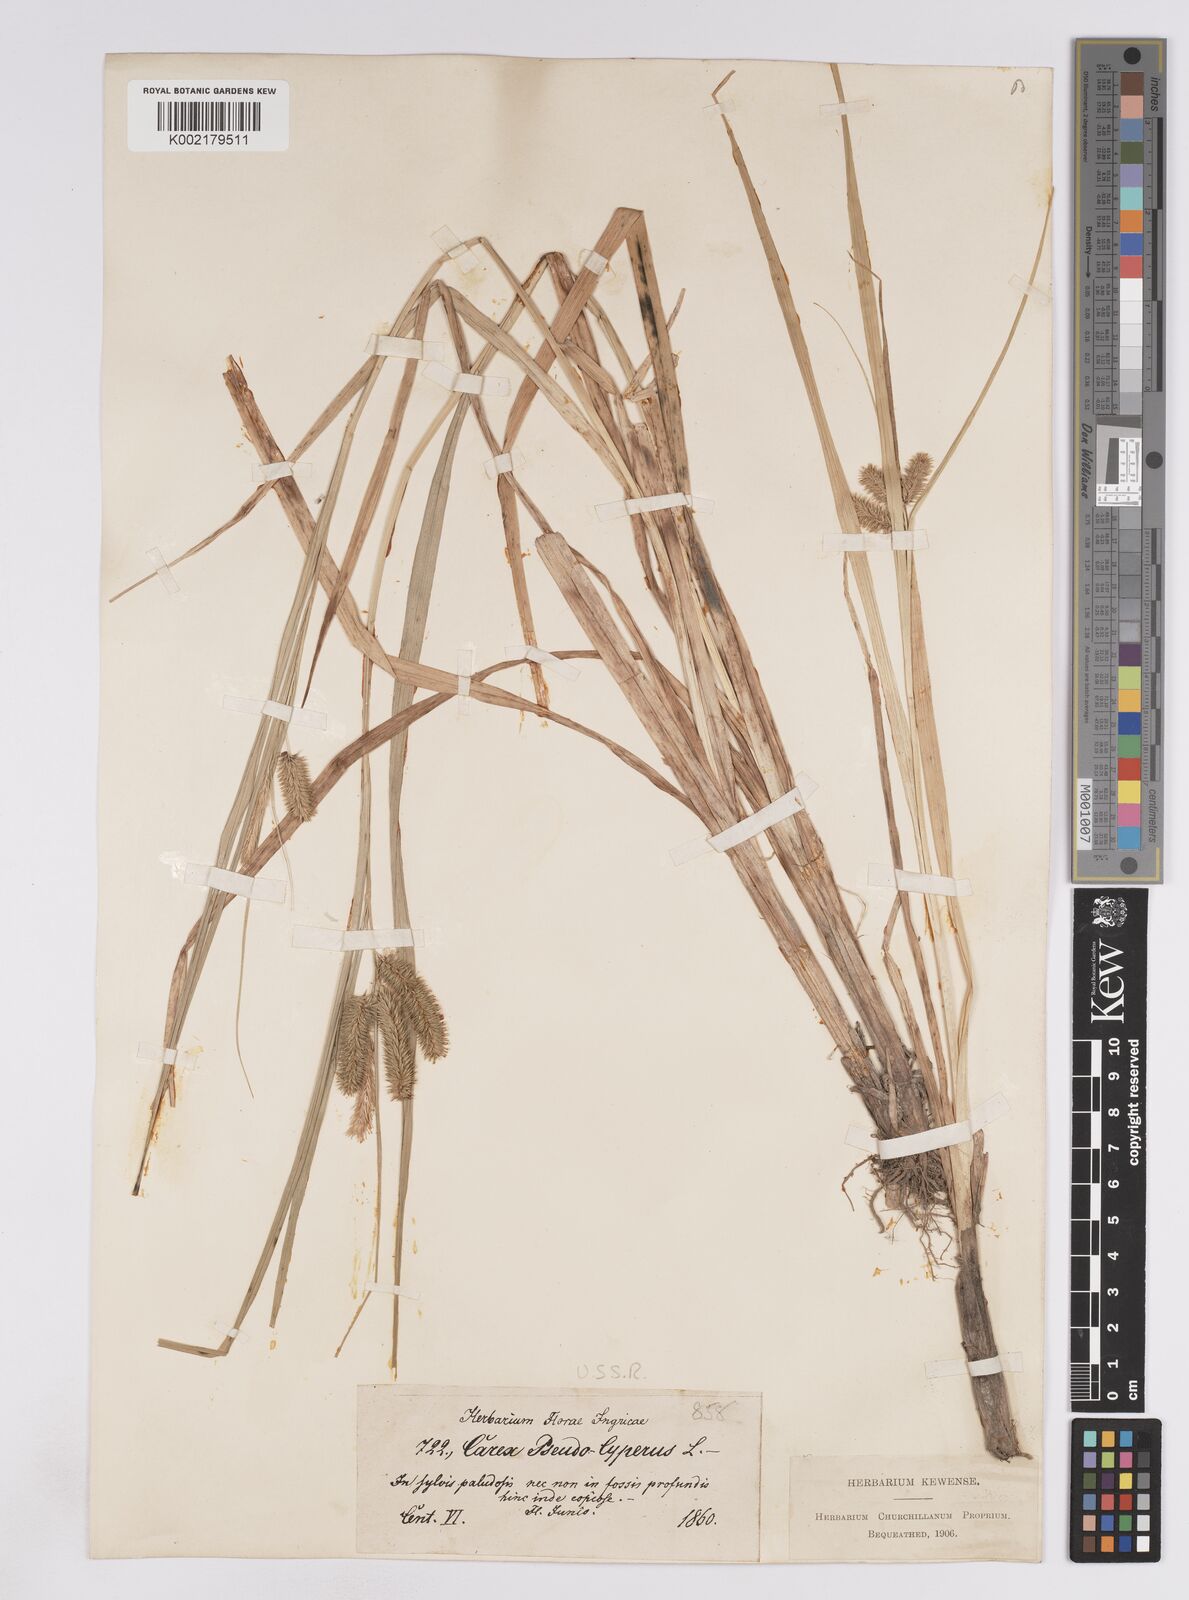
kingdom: Plantae
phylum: Tracheophyta
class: Liliopsida
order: Poales
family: Cyperaceae
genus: Carex
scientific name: Carex pseudocyperus
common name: Cyperus sedge
